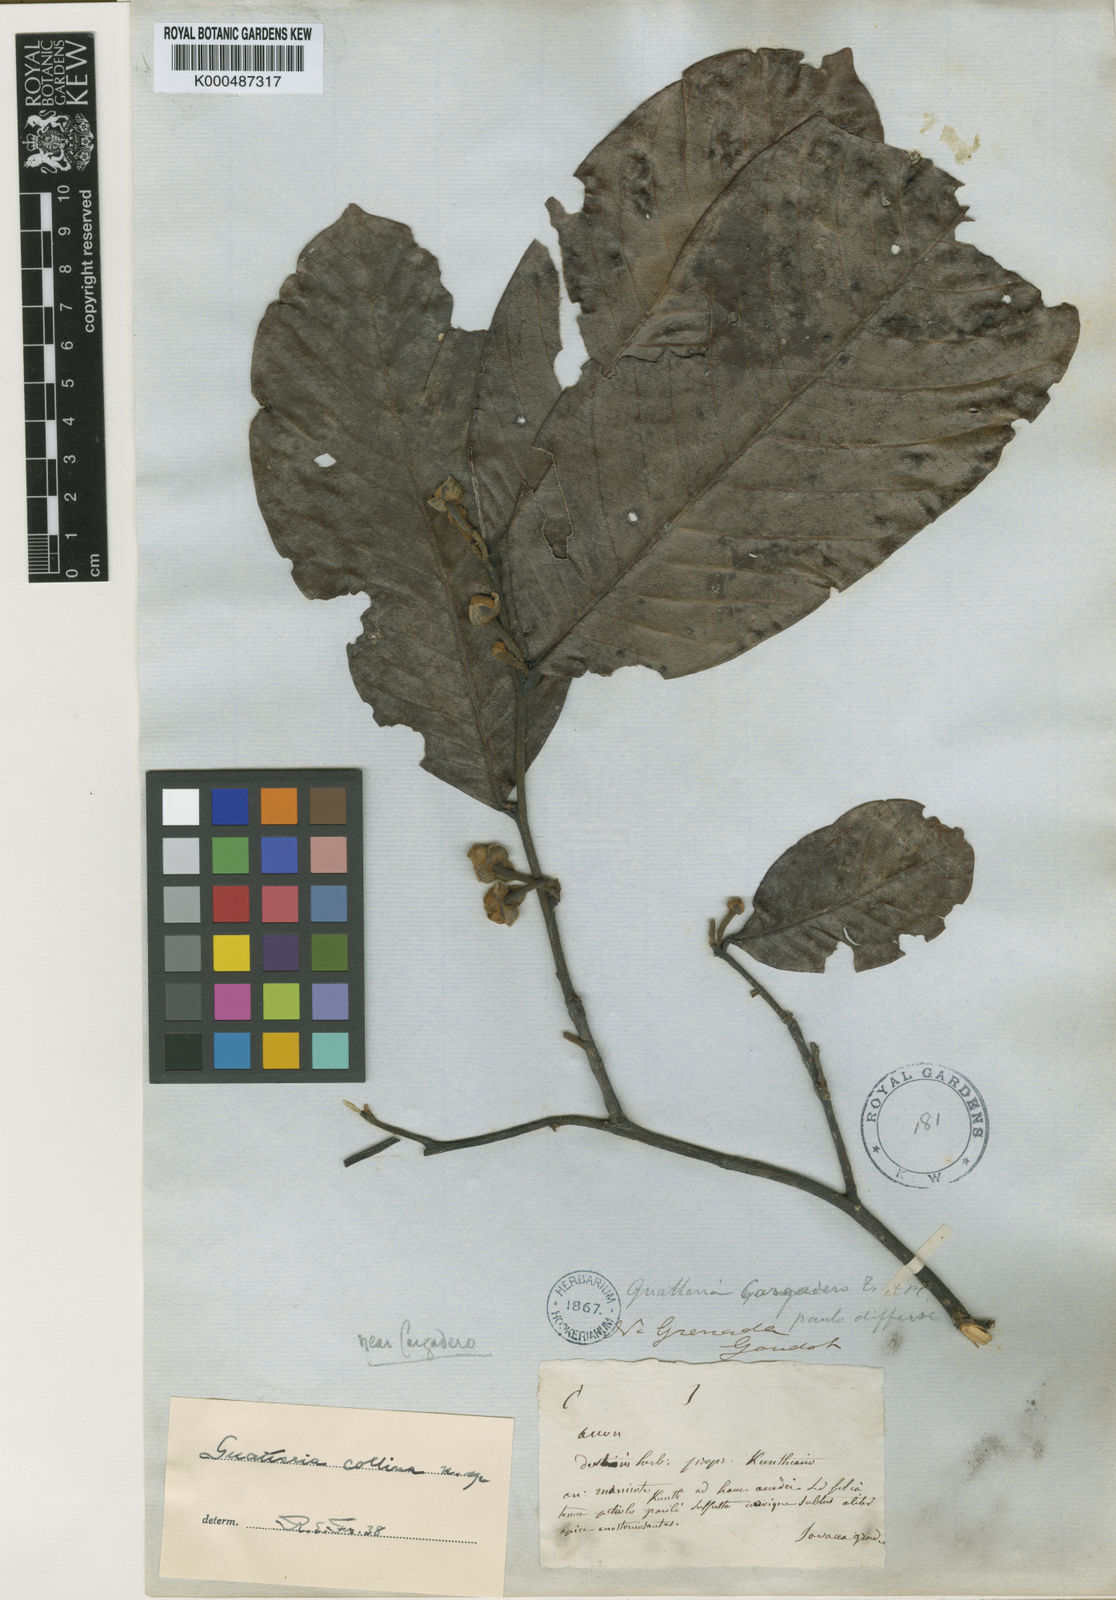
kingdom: Plantae
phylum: Tracheophyta
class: Magnoliopsida
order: Magnoliales
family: Annonaceae
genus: Guatteria
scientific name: Guatteria cargadero
